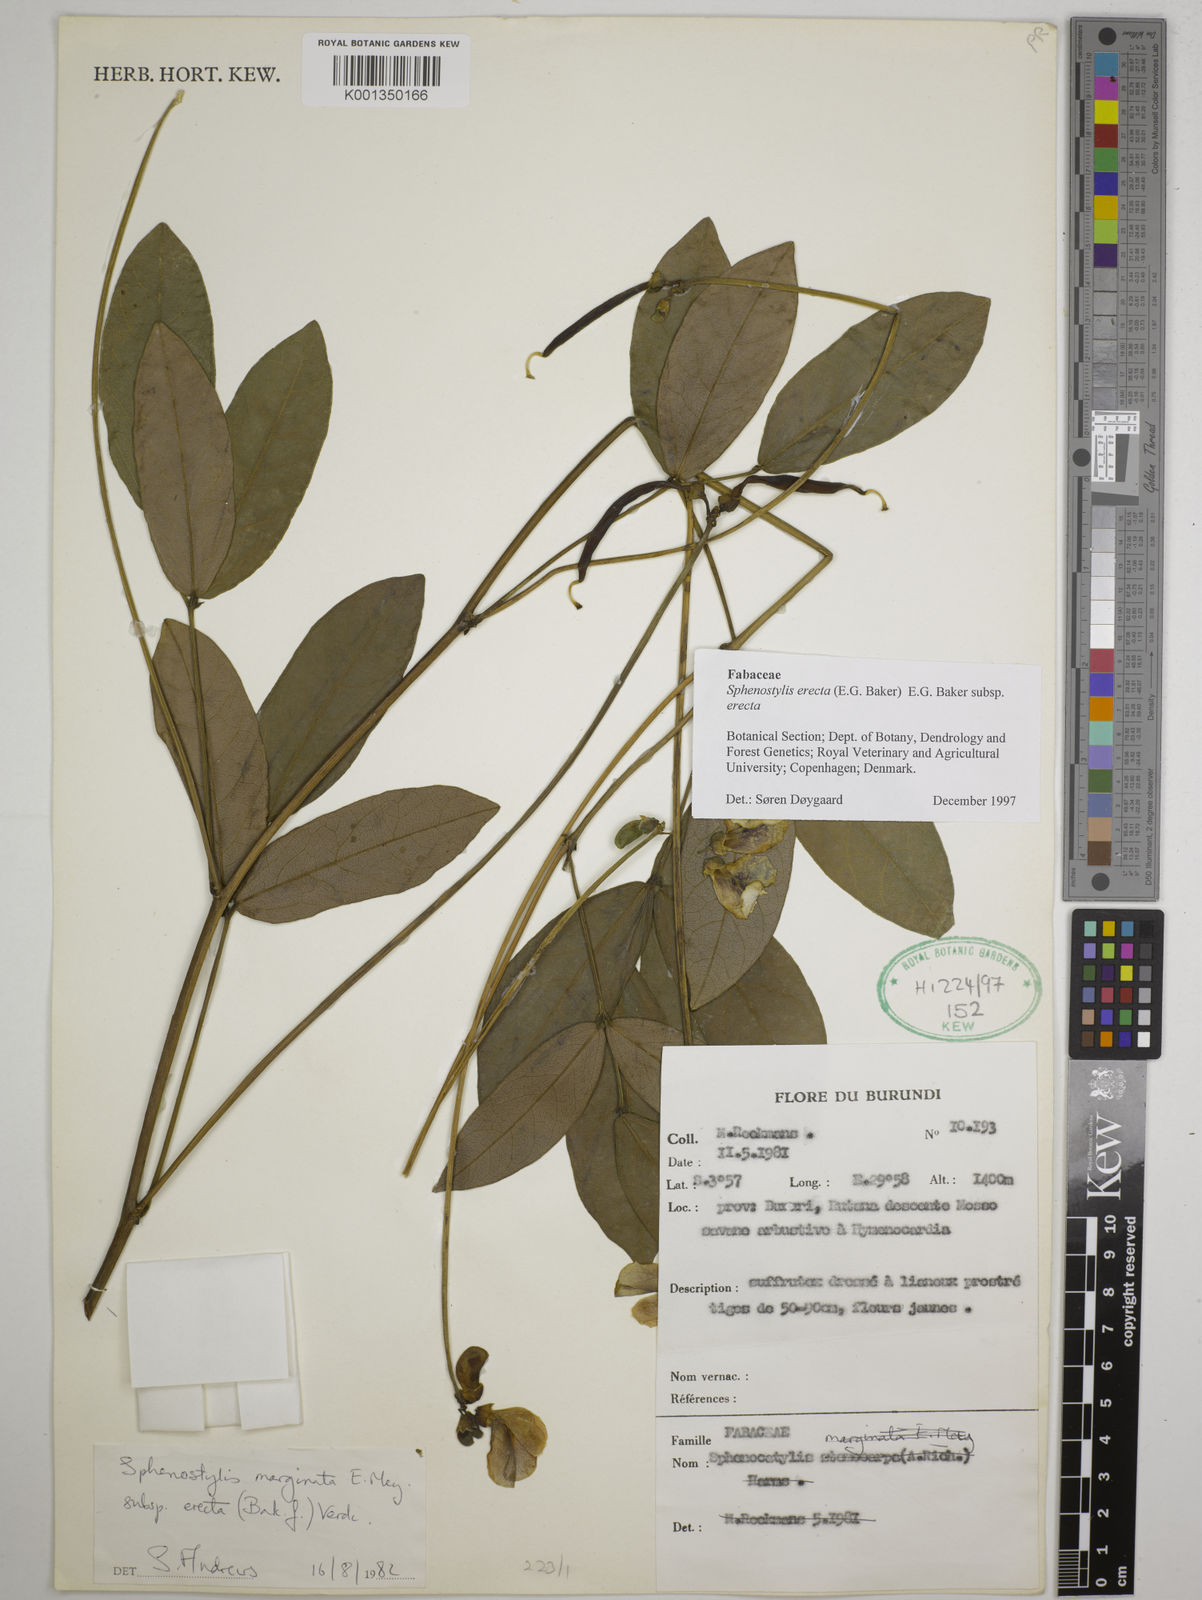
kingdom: Plantae
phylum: Tracheophyta
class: Magnoliopsida
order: Fabales
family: Fabaceae
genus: Sphenostylis
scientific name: Sphenostylis erecta
